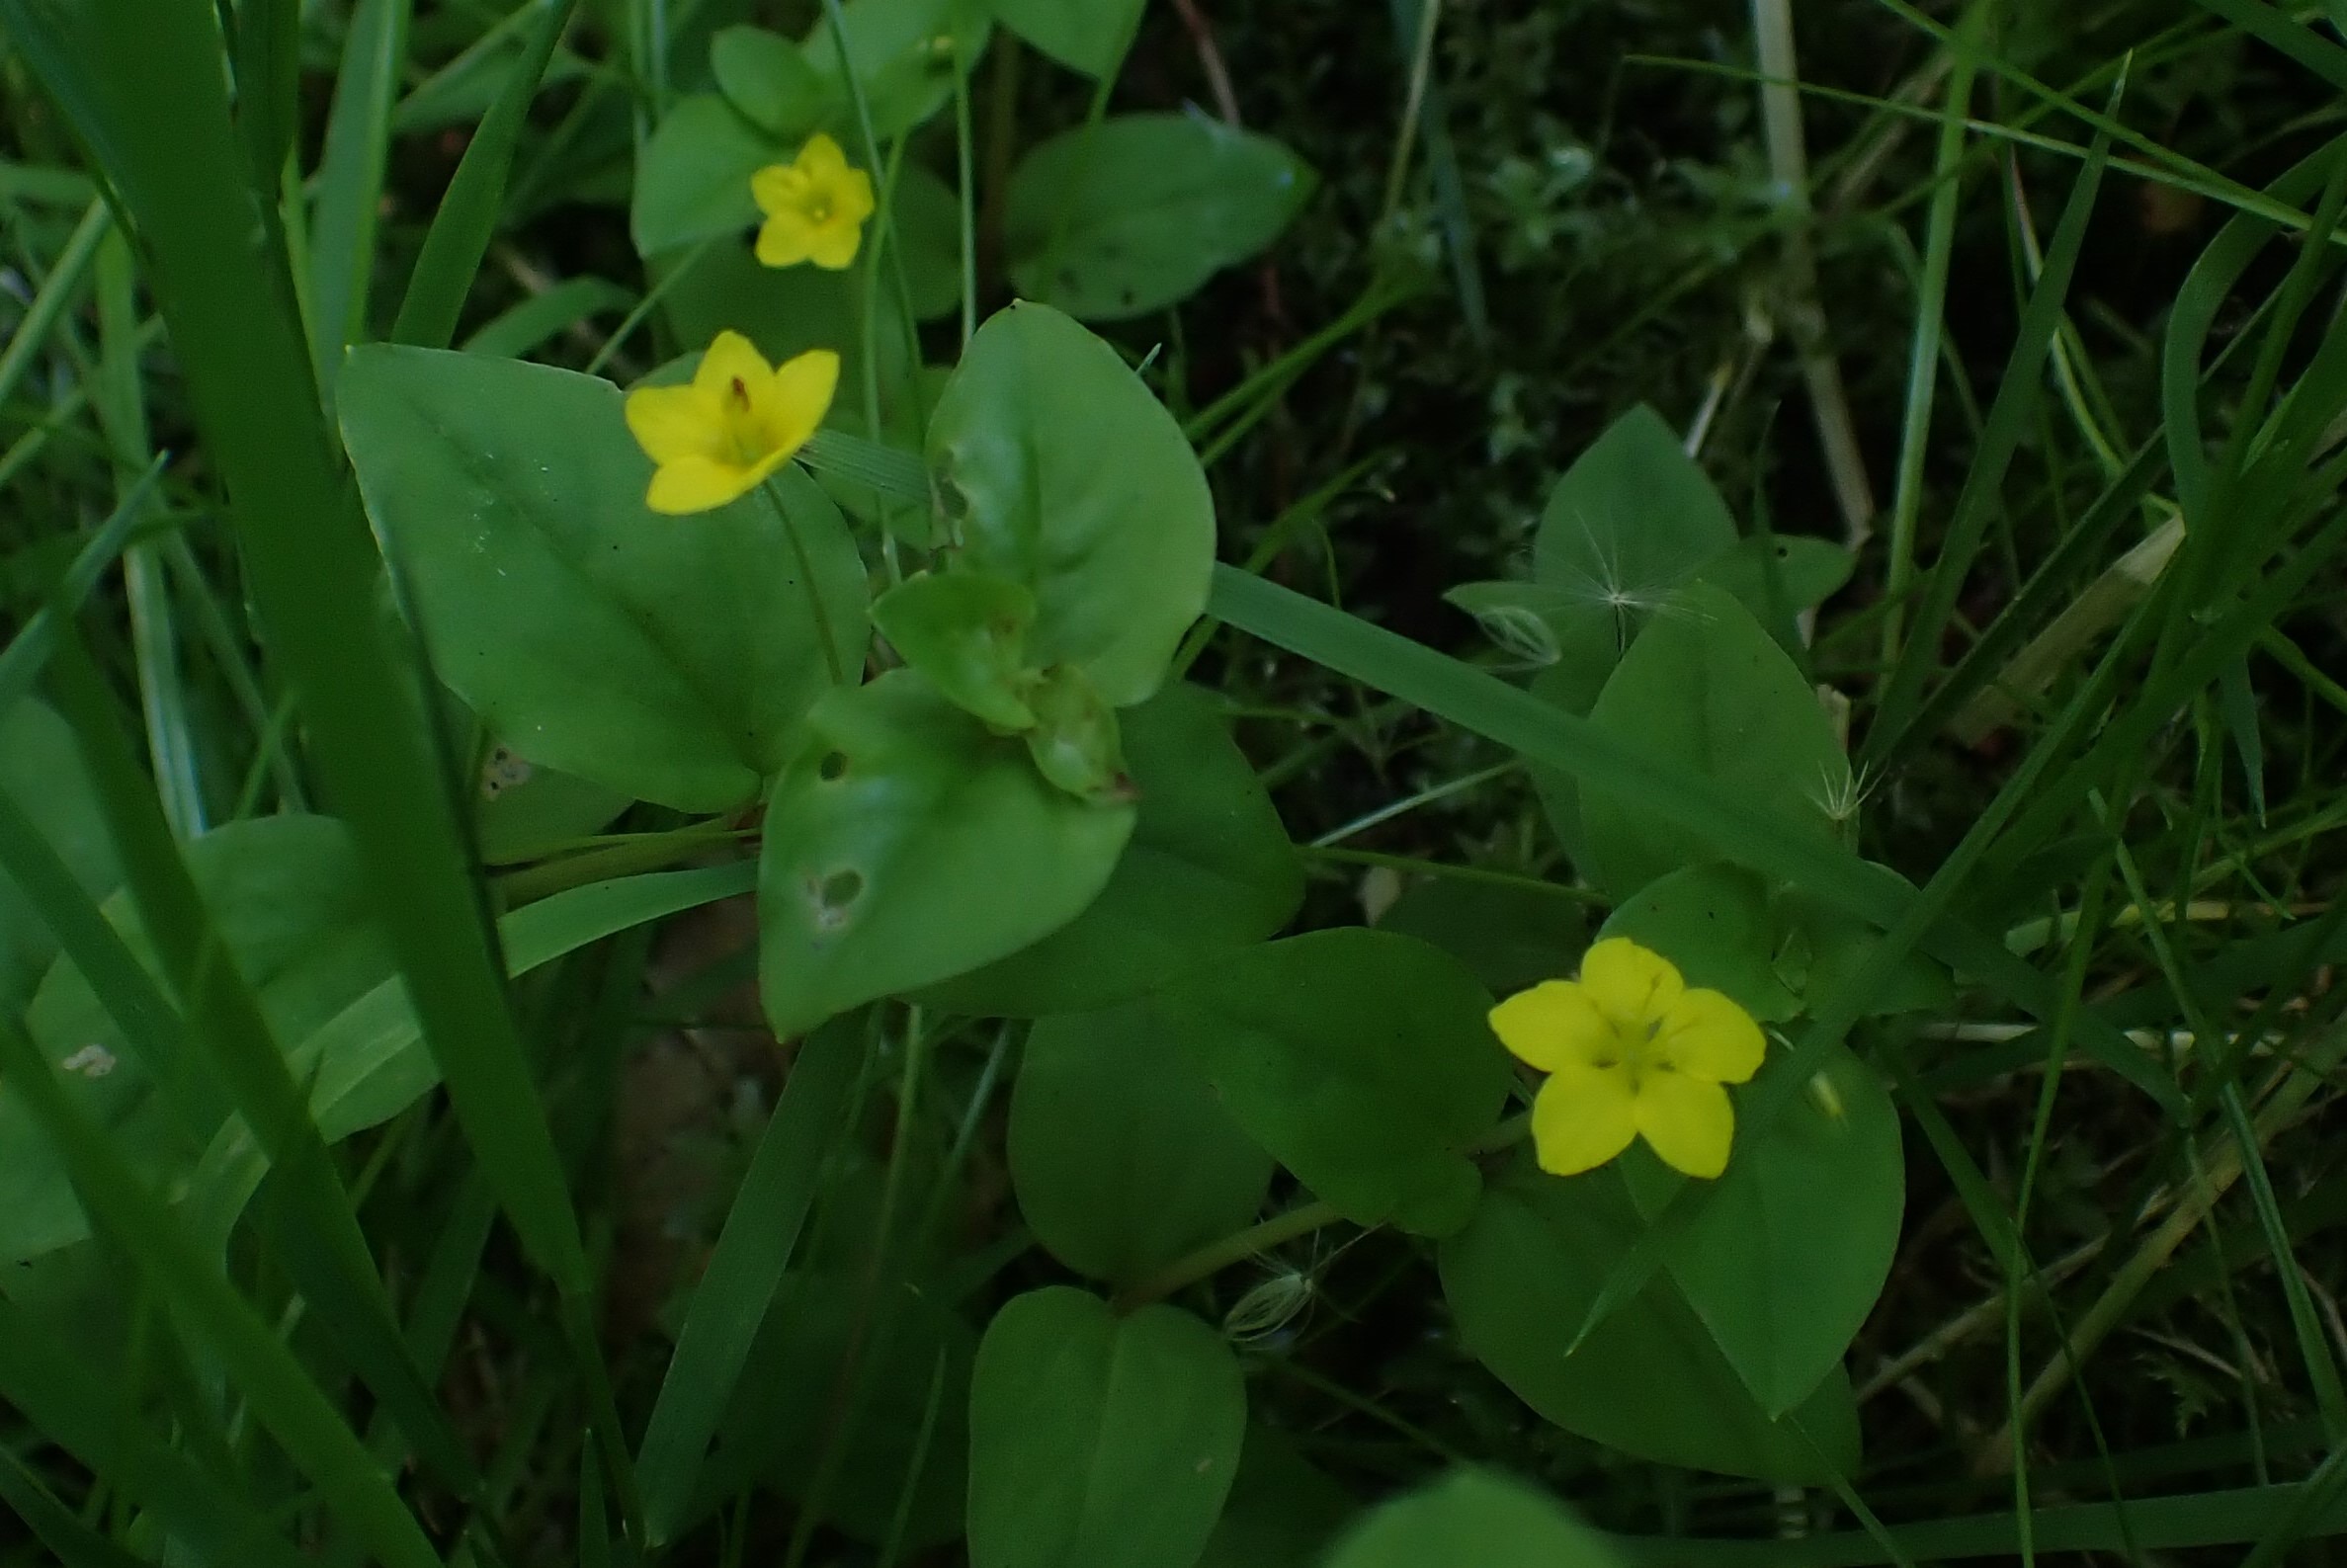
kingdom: Plantae
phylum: Tracheophyta
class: Magnoliopsida
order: Ericales
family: Primulaceae
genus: Lysimachia
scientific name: Lysimachia nemorum
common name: Lund-fredløs
